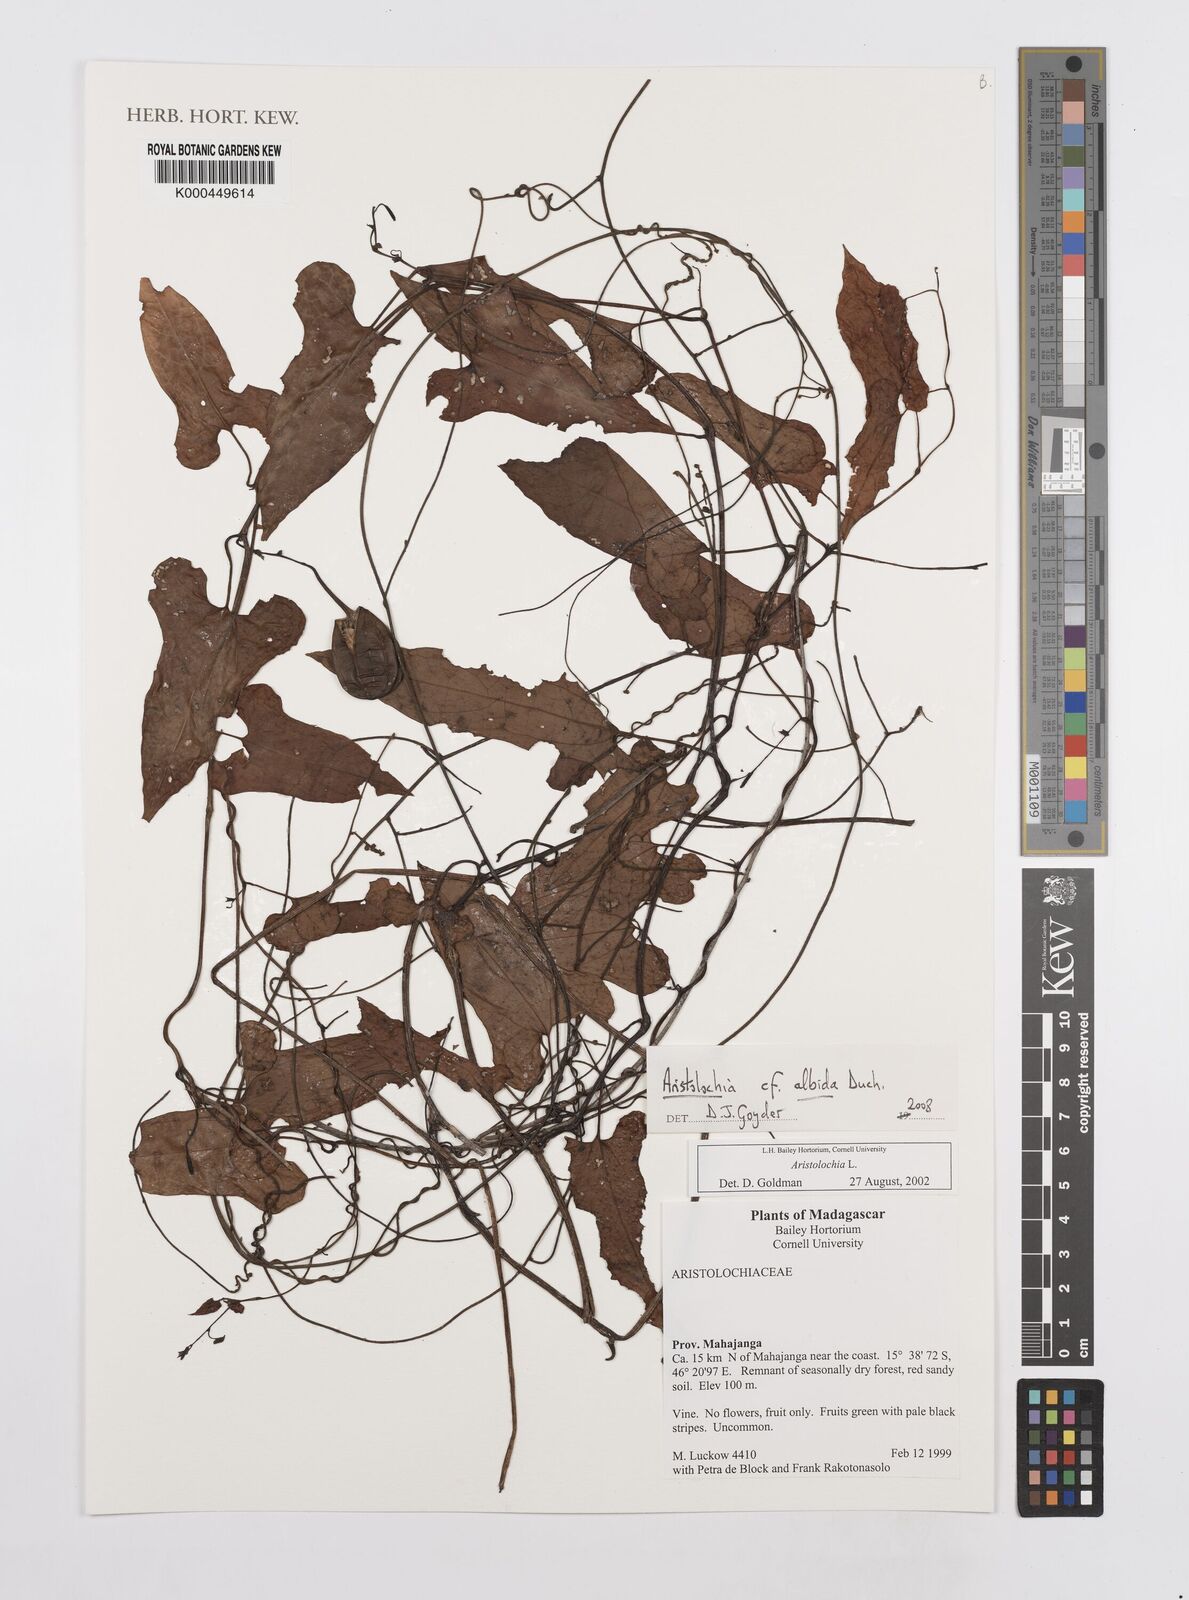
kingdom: Plantae
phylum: Tracheophyta
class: Magnoliopsida
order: Piperales
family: Aristolochiaceae
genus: Aristolochia
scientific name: Aristolochia albida
